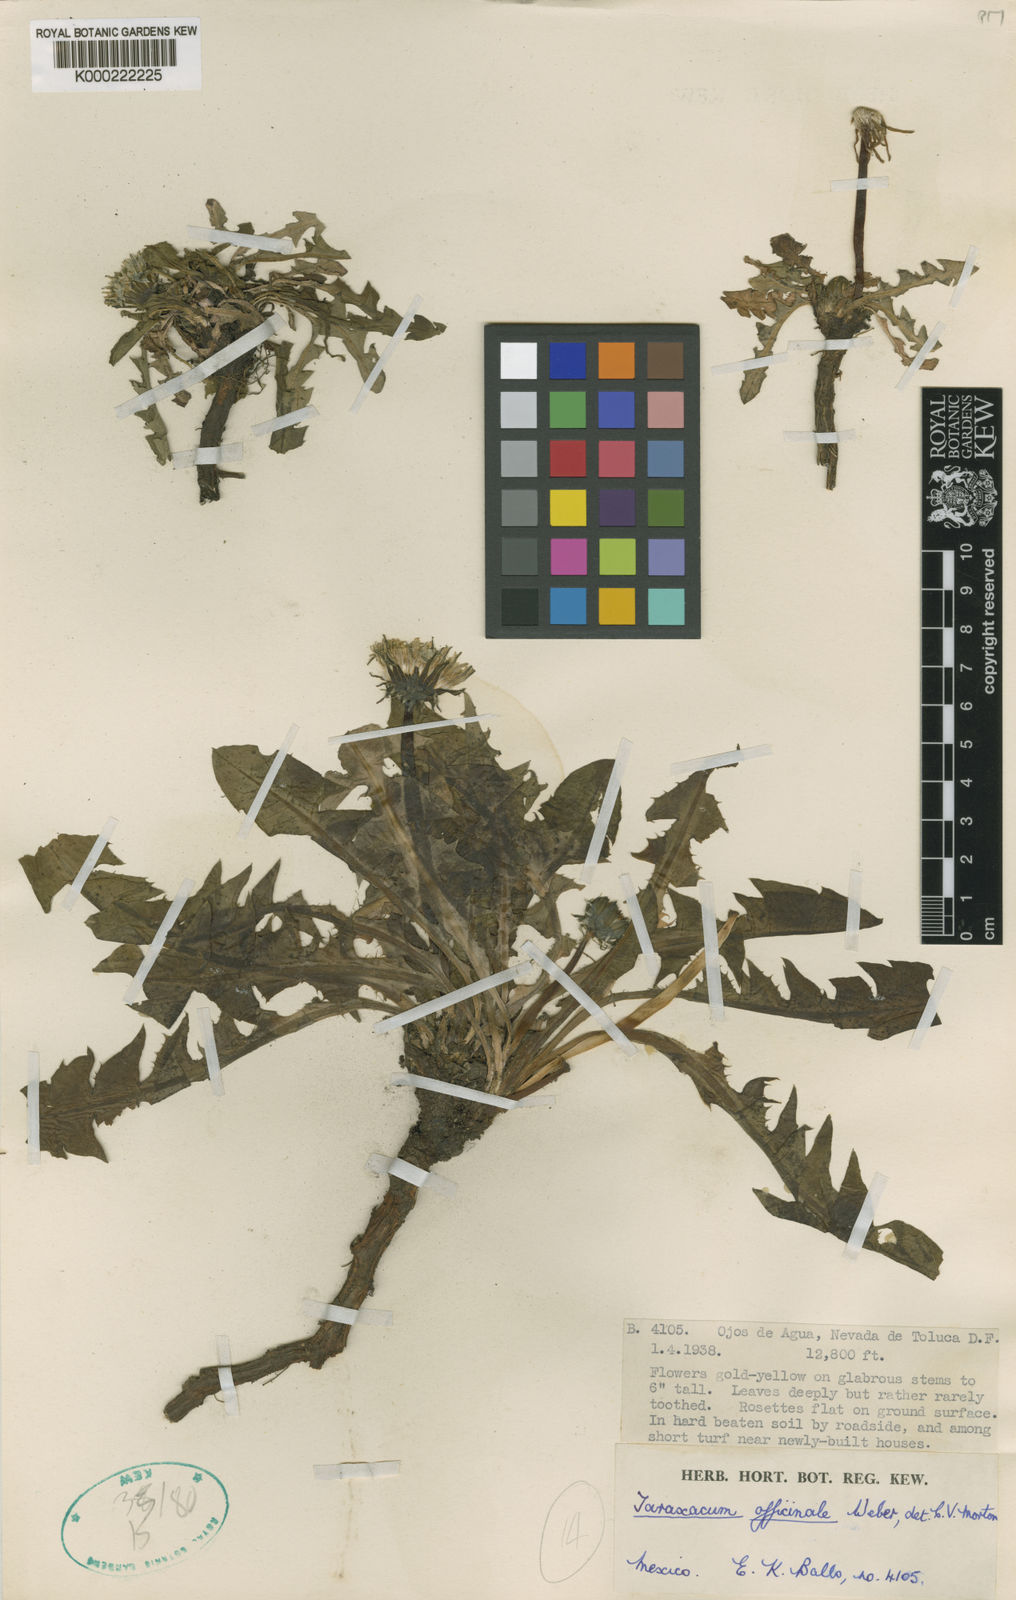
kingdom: Plantae
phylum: Tracheophyta
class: Magnoliopsida
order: Asterales
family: Asteraceae
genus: Taraxacum
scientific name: Taraxacum
